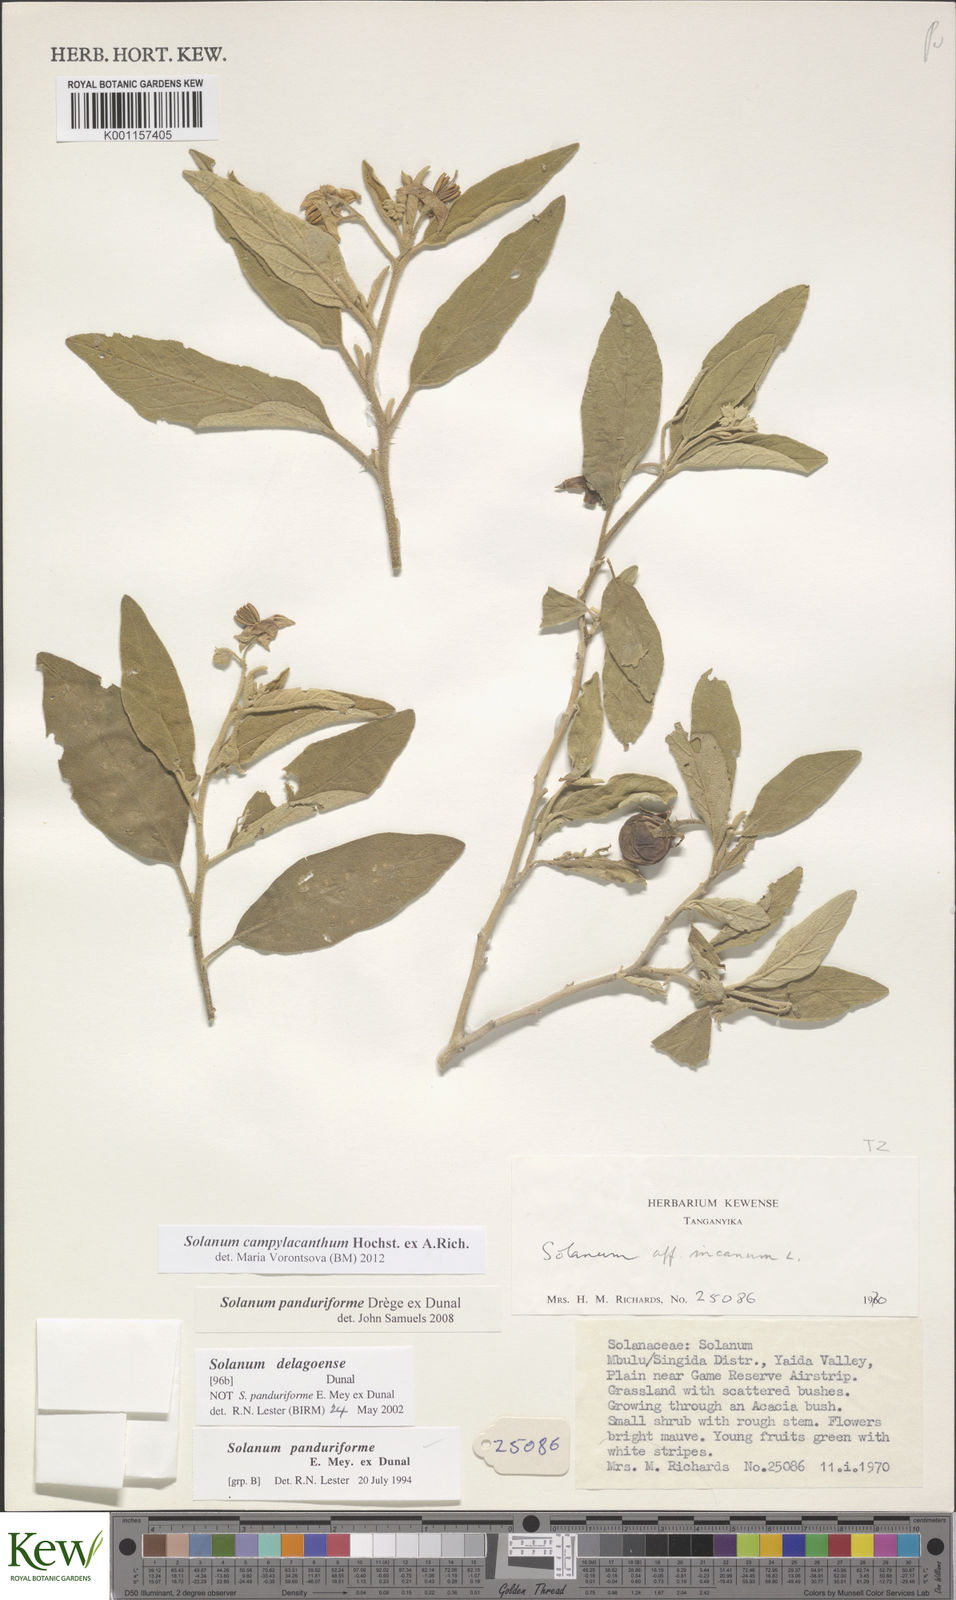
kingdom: Plantae
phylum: Tracheophyta
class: Magnoliopsida
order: Solanales
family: Solanaceae
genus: Solanum
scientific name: Solanum campylacanthum
